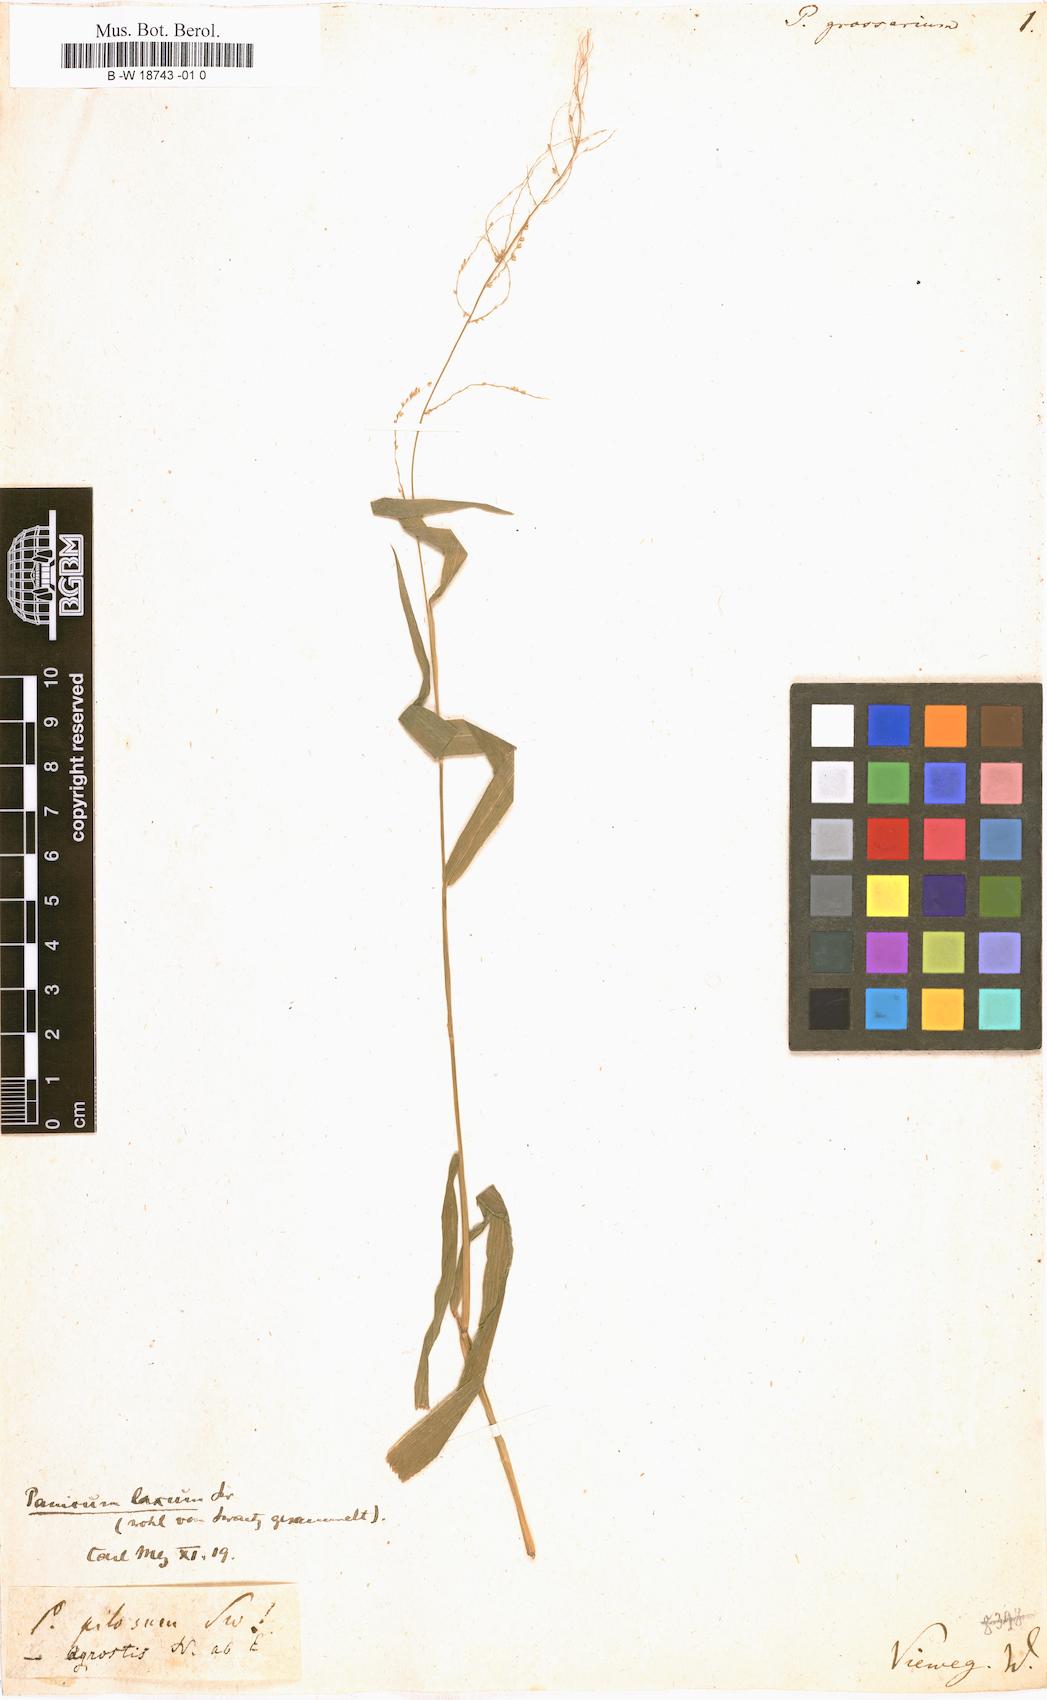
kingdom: Plantae
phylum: Tracheophyta
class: Liliopsida
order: Poales
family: Poaceae
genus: Panicum
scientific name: Panicum grossarium
